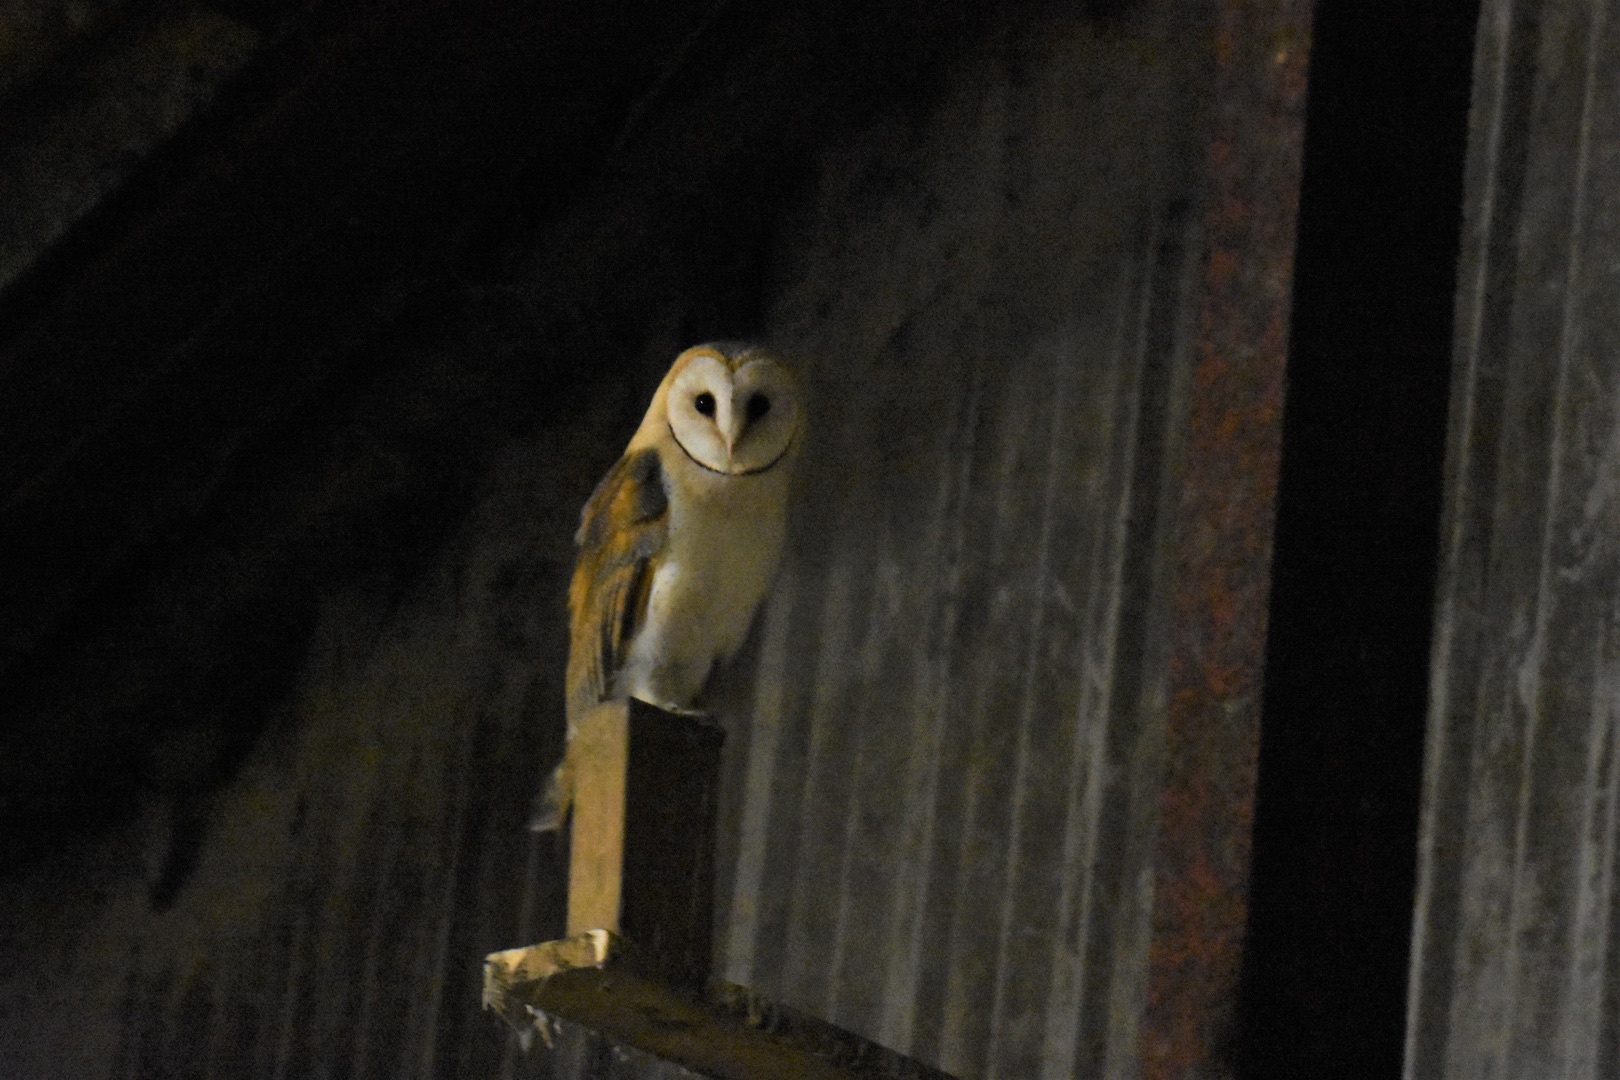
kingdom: Animalia
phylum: Chordata
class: Aves
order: Strigiformes
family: Tytonidae
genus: Tyto
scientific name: Tyto alba
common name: Slørugle
